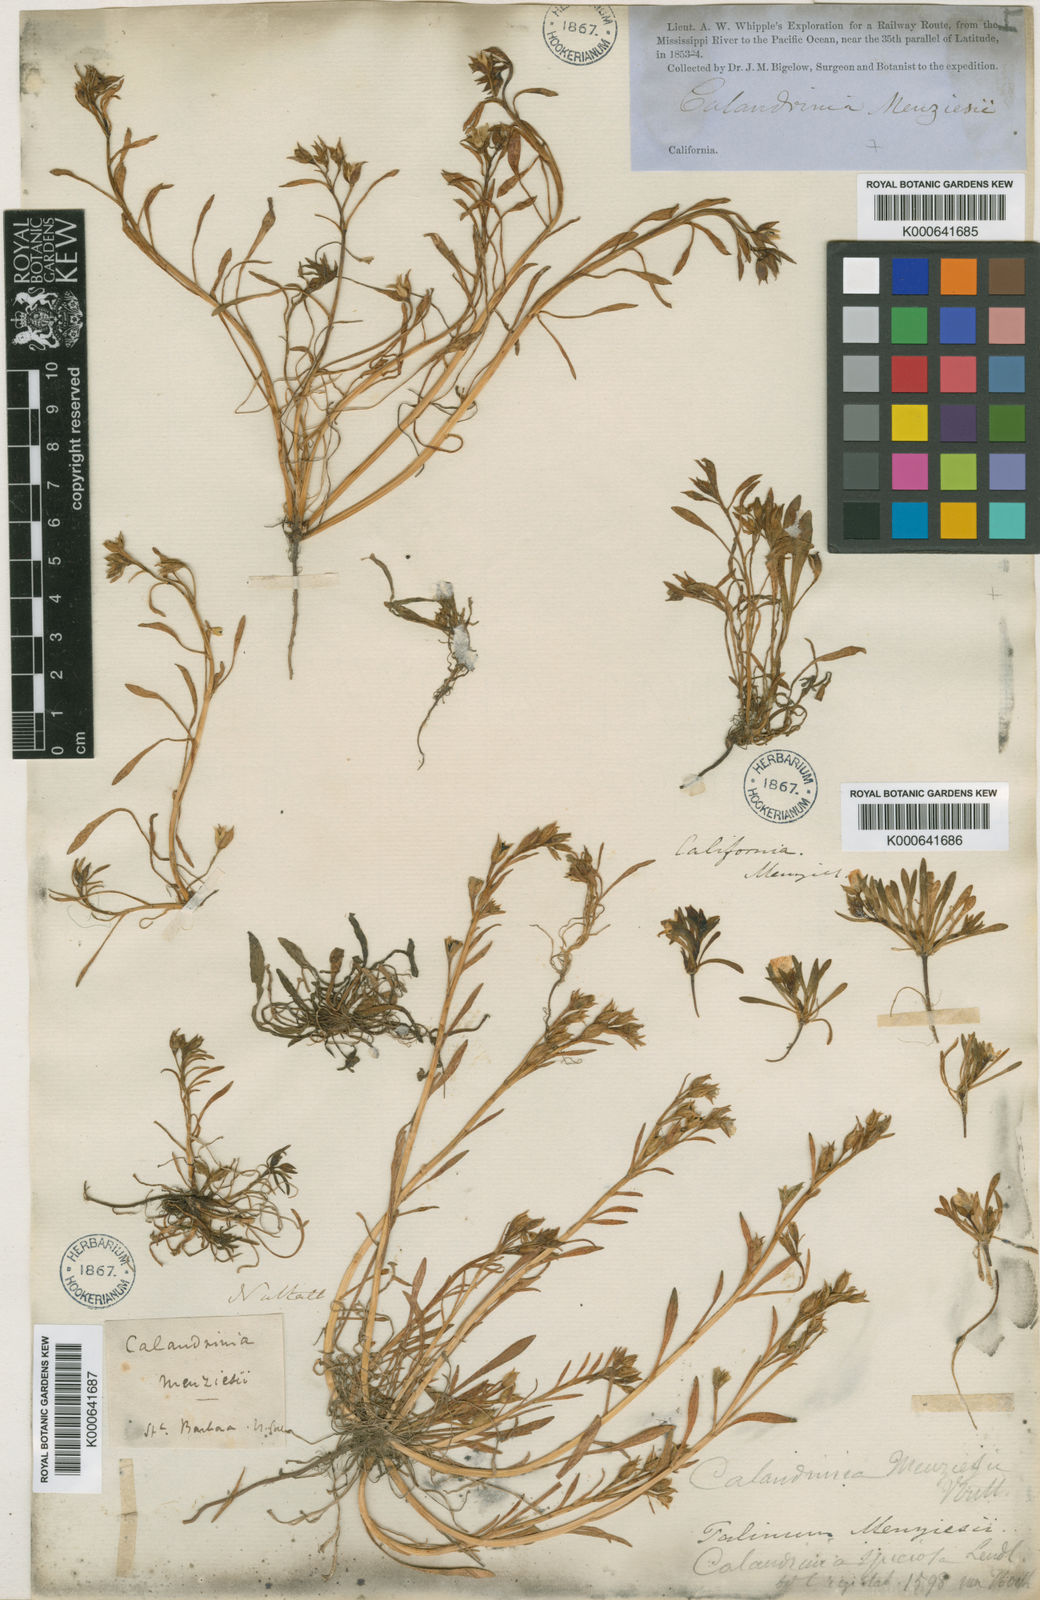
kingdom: Plantae
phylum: Tracheophyta
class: Magnoliopsida
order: Caryophyllales
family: Montiaceae
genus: Calandrinia
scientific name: Calandrinia ciliata
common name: Red-maids
